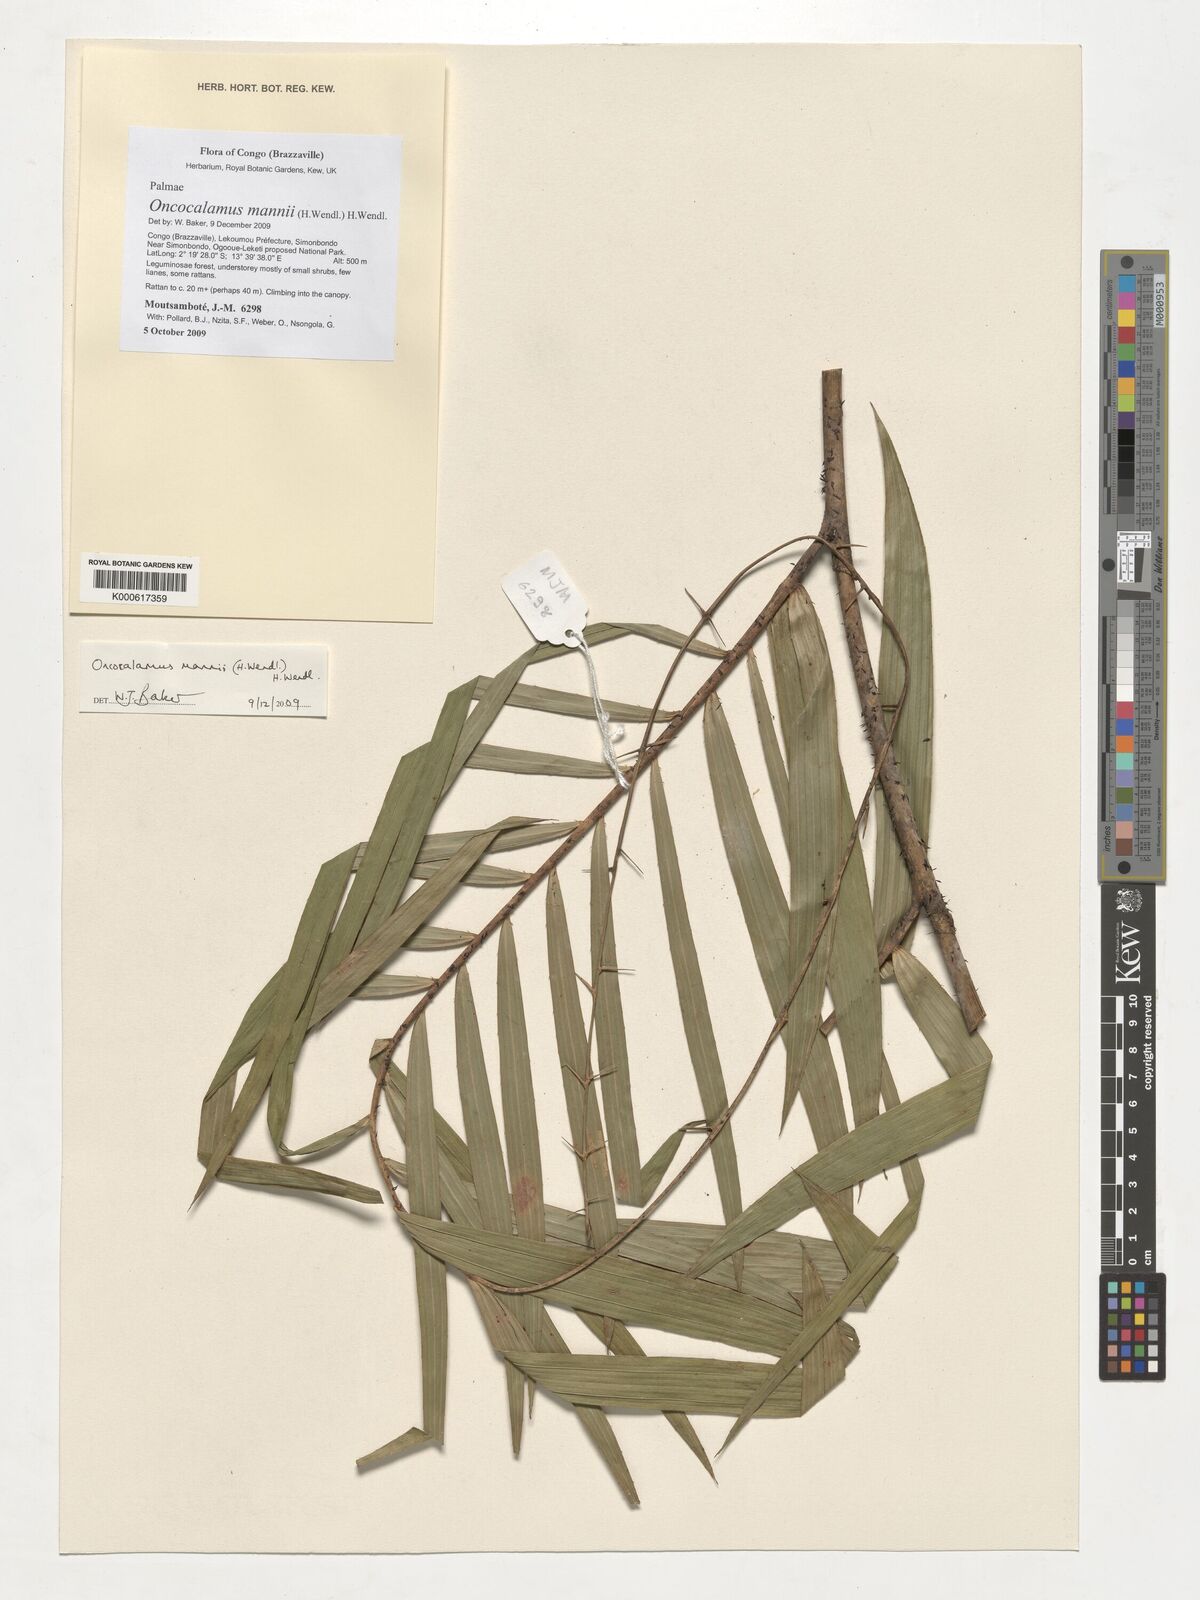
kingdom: Plantae
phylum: Tracheophyta
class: Liliopsida
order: Arecales
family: Arecaceae
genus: Oncocalamus
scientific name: Oncocalamus mannii
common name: Rattan
